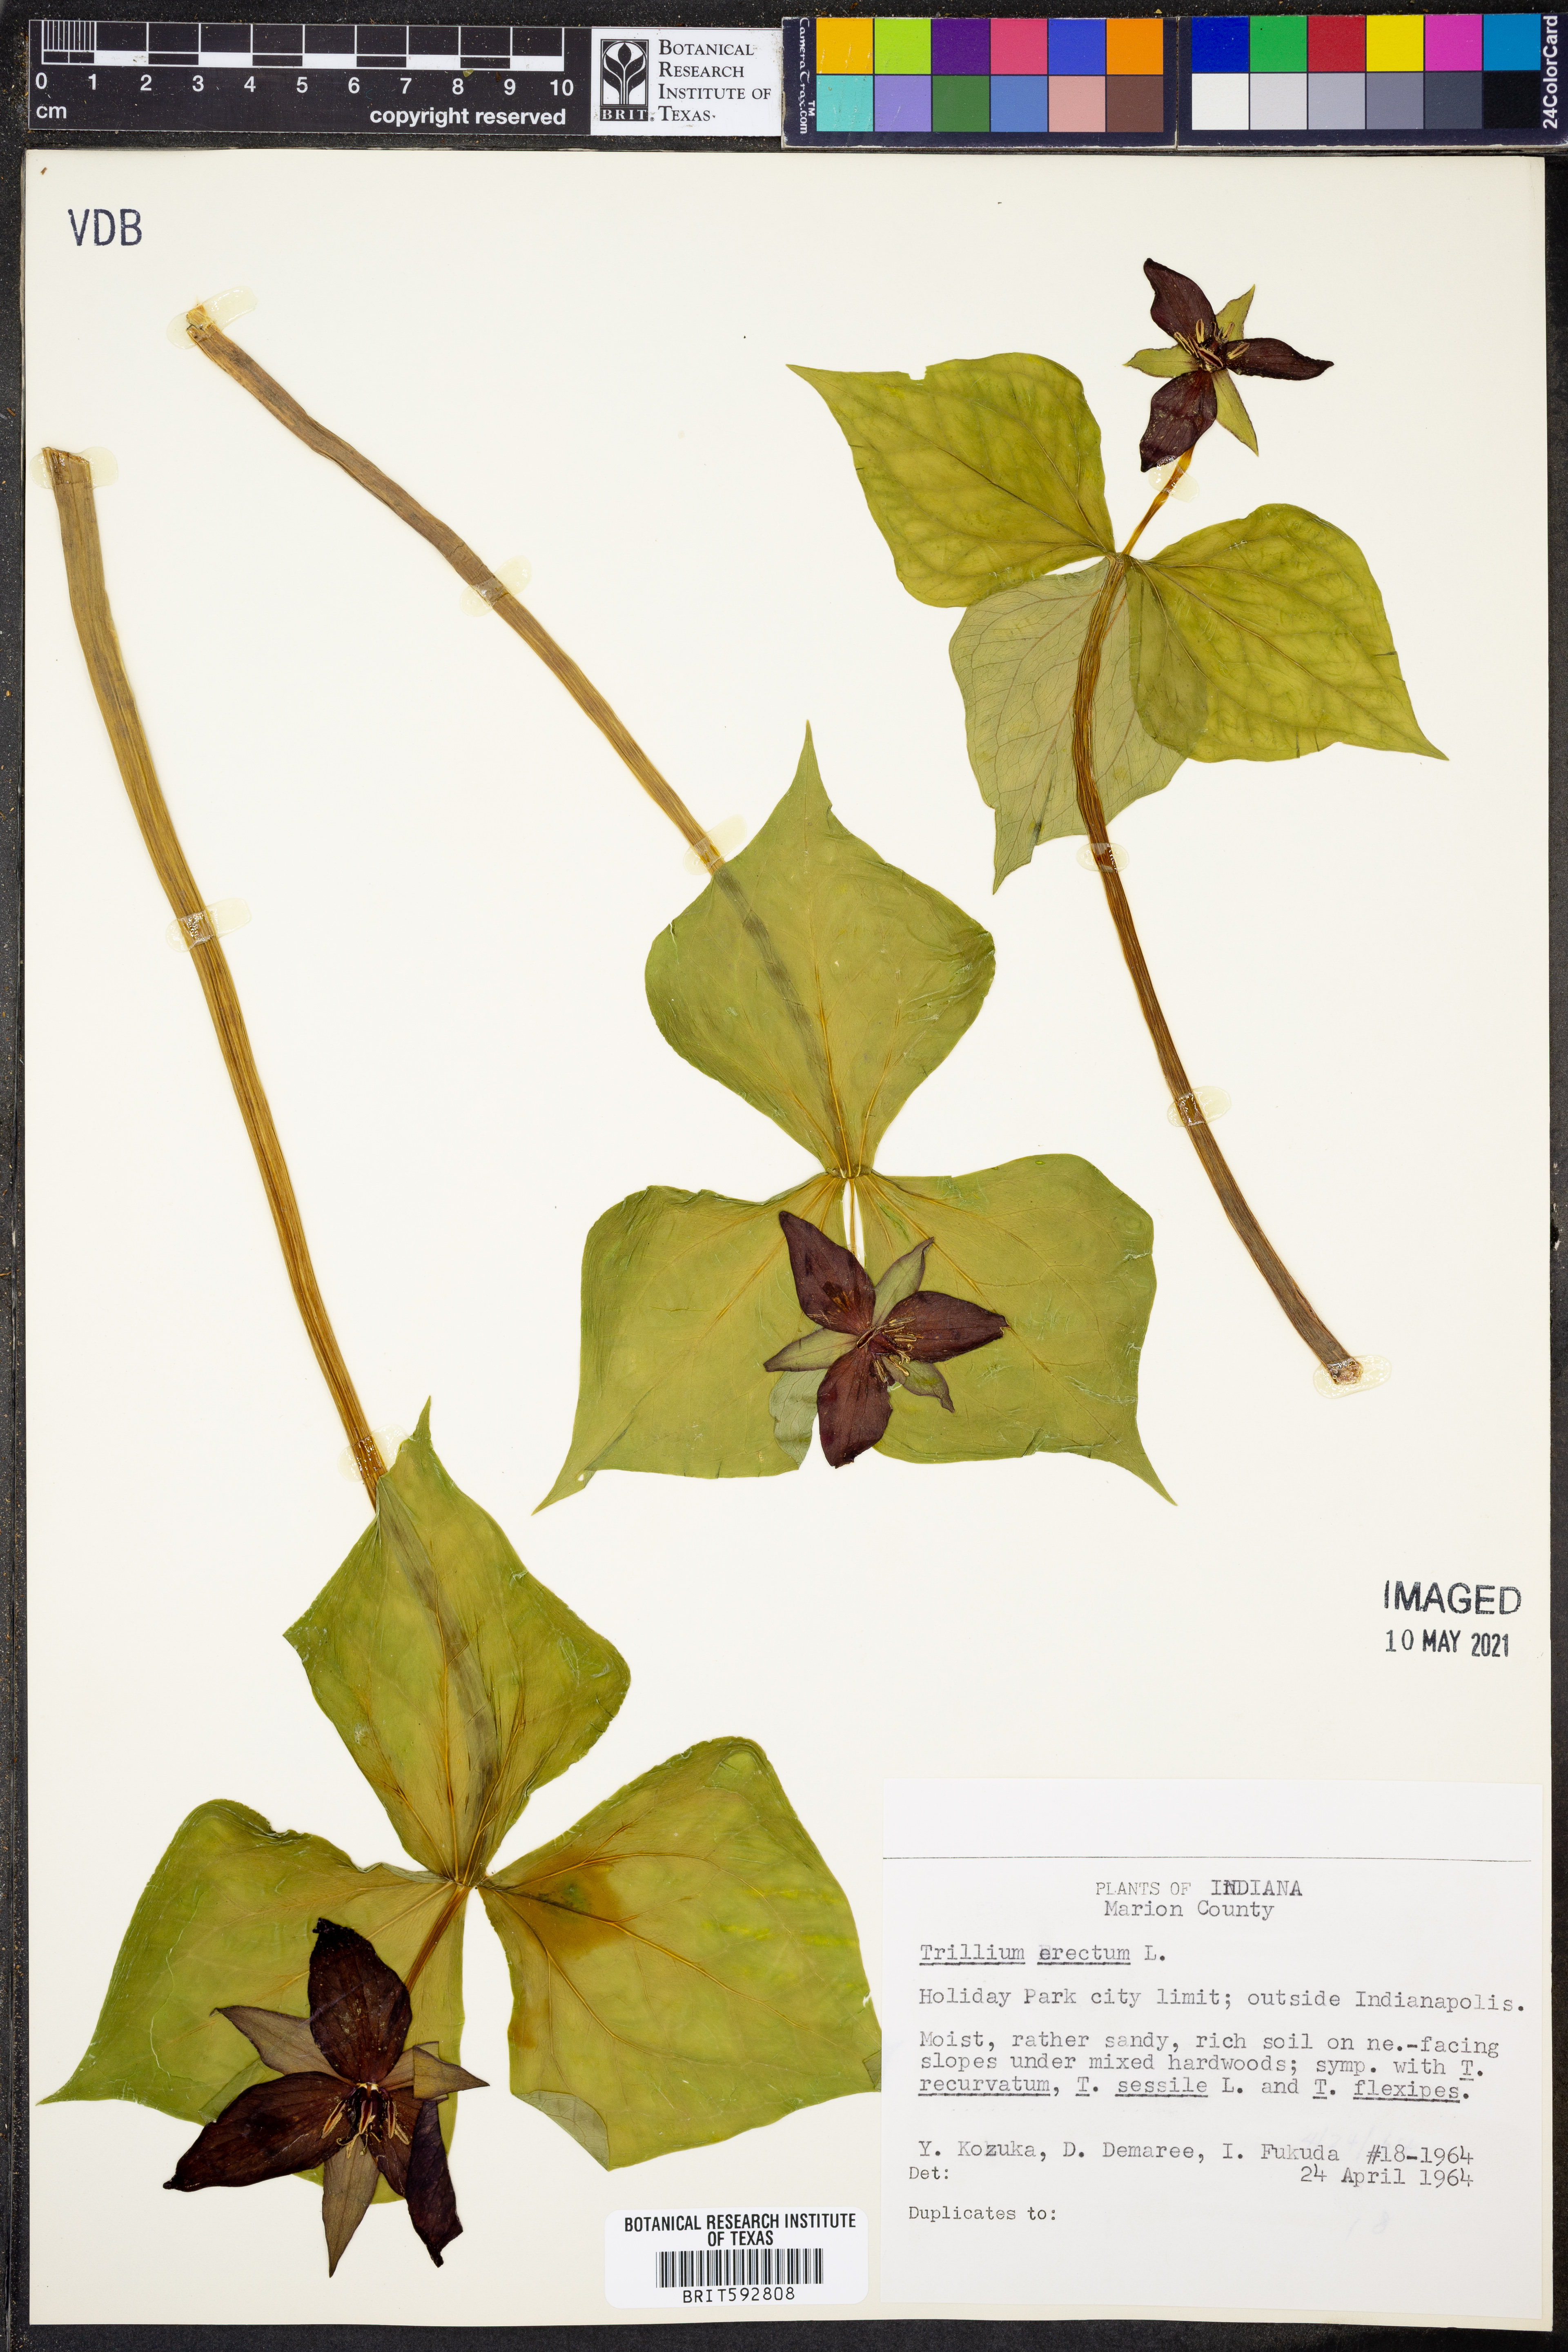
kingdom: Plantae
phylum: Tracheophyta
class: Liliopsida
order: Liliales
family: Melanthiaceae
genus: Trillium
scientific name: Trillium erectum
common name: Purple trillium
